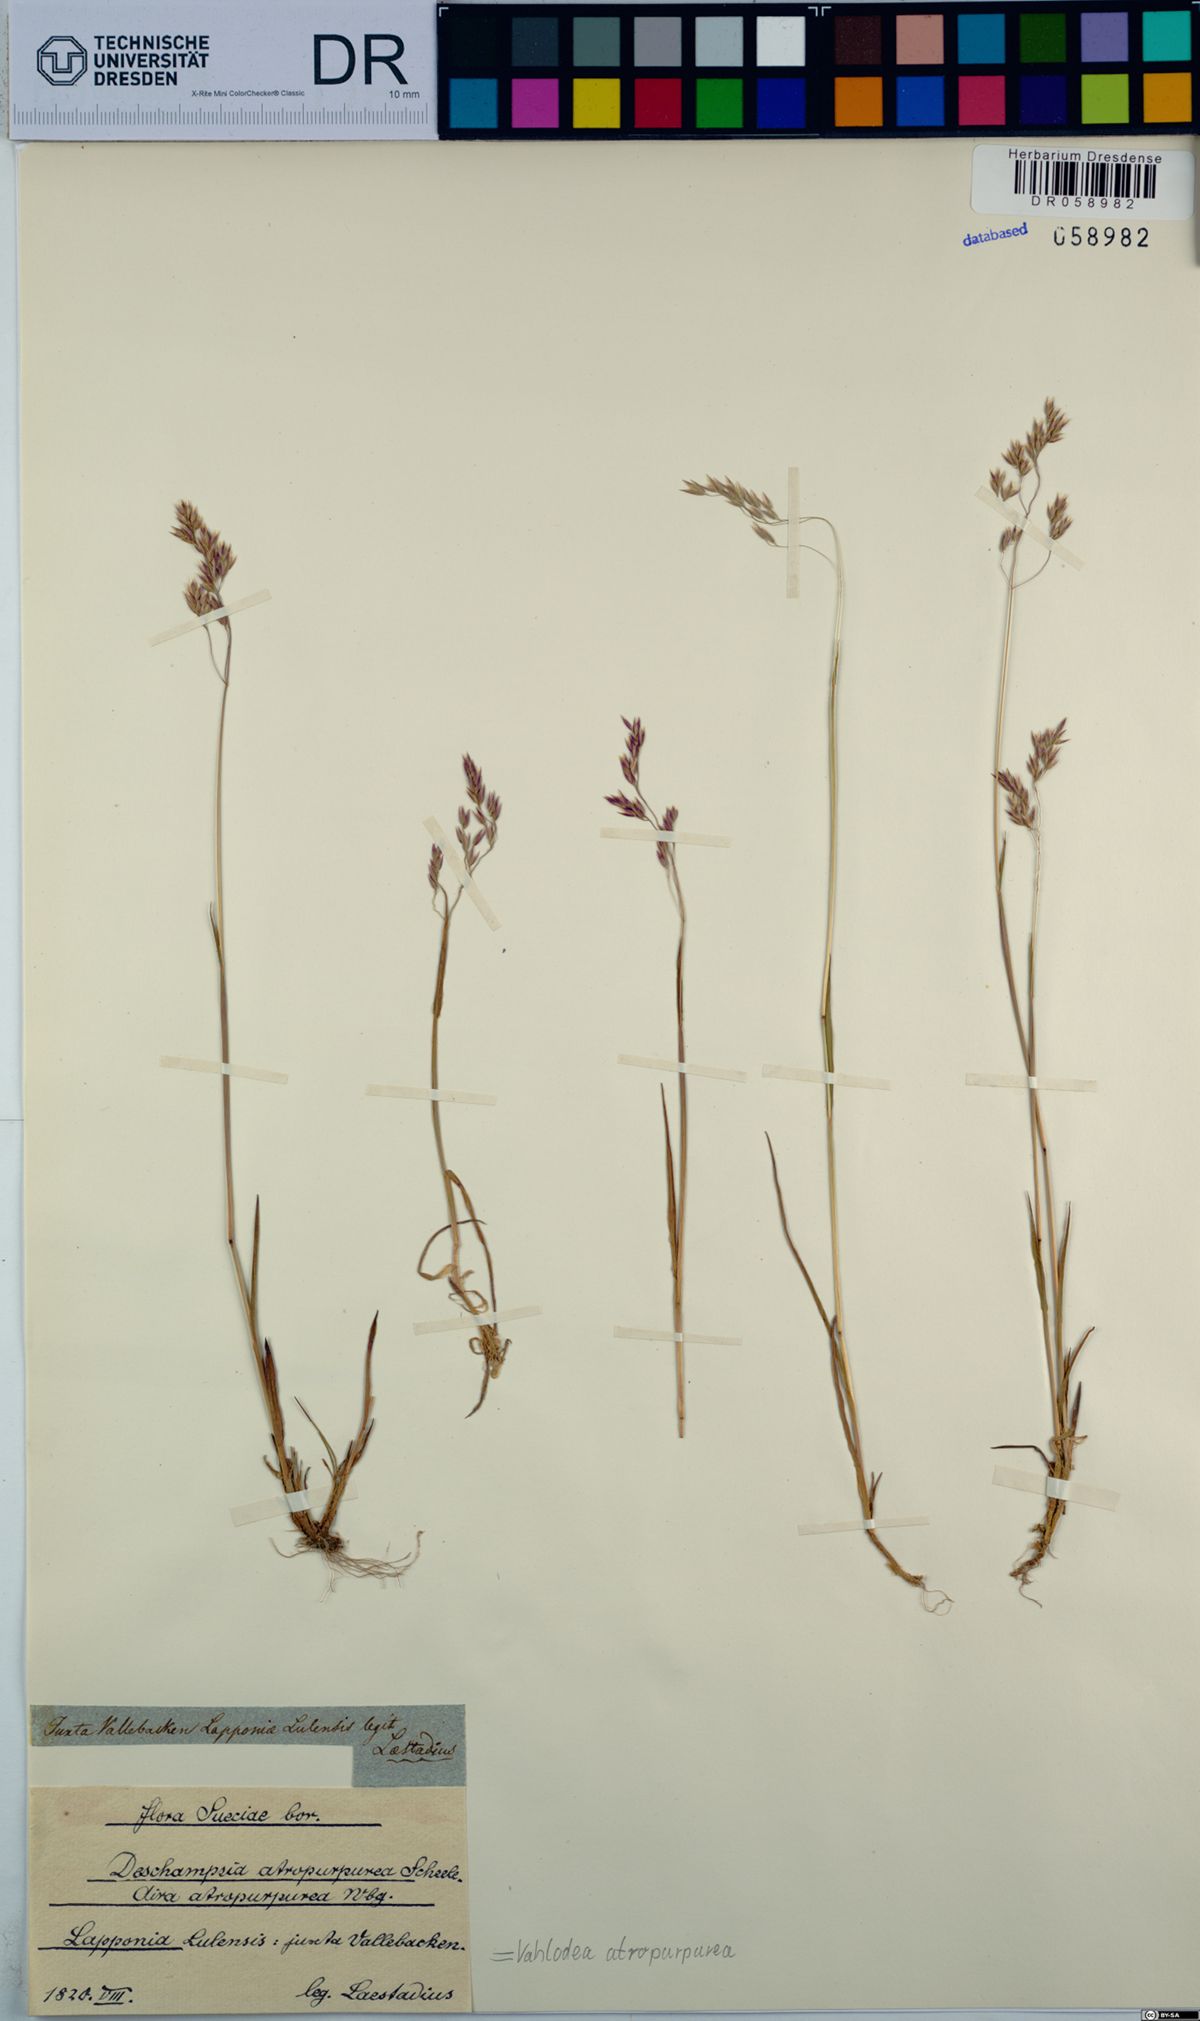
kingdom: Plantae
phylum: Tracheophyta
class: Liliopsida
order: Poales
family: Poaceae
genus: Vahlodea
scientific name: Vahlodea atropurpurea
